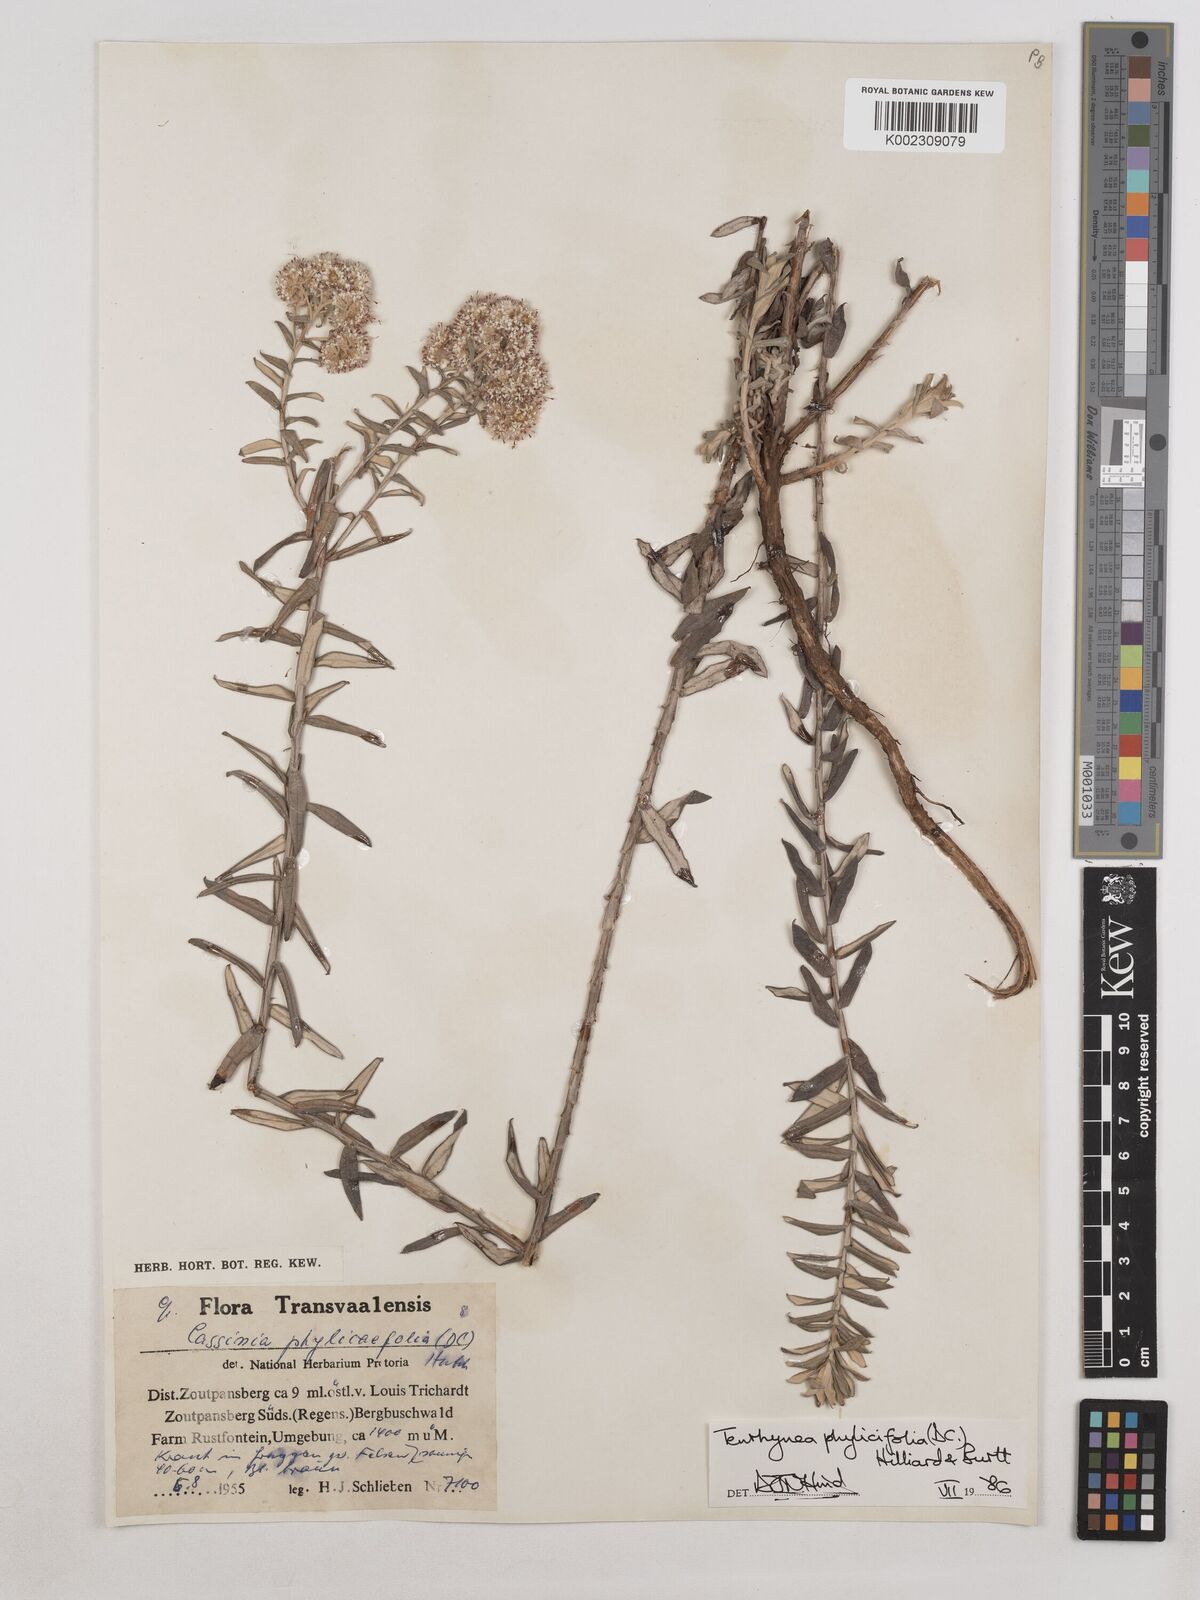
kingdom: Plantae
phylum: Tracheophyta
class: Magnoliopsida
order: Asterales
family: Asteraceae
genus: Tenrhynea
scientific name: Tenrhynea phylicifolia
